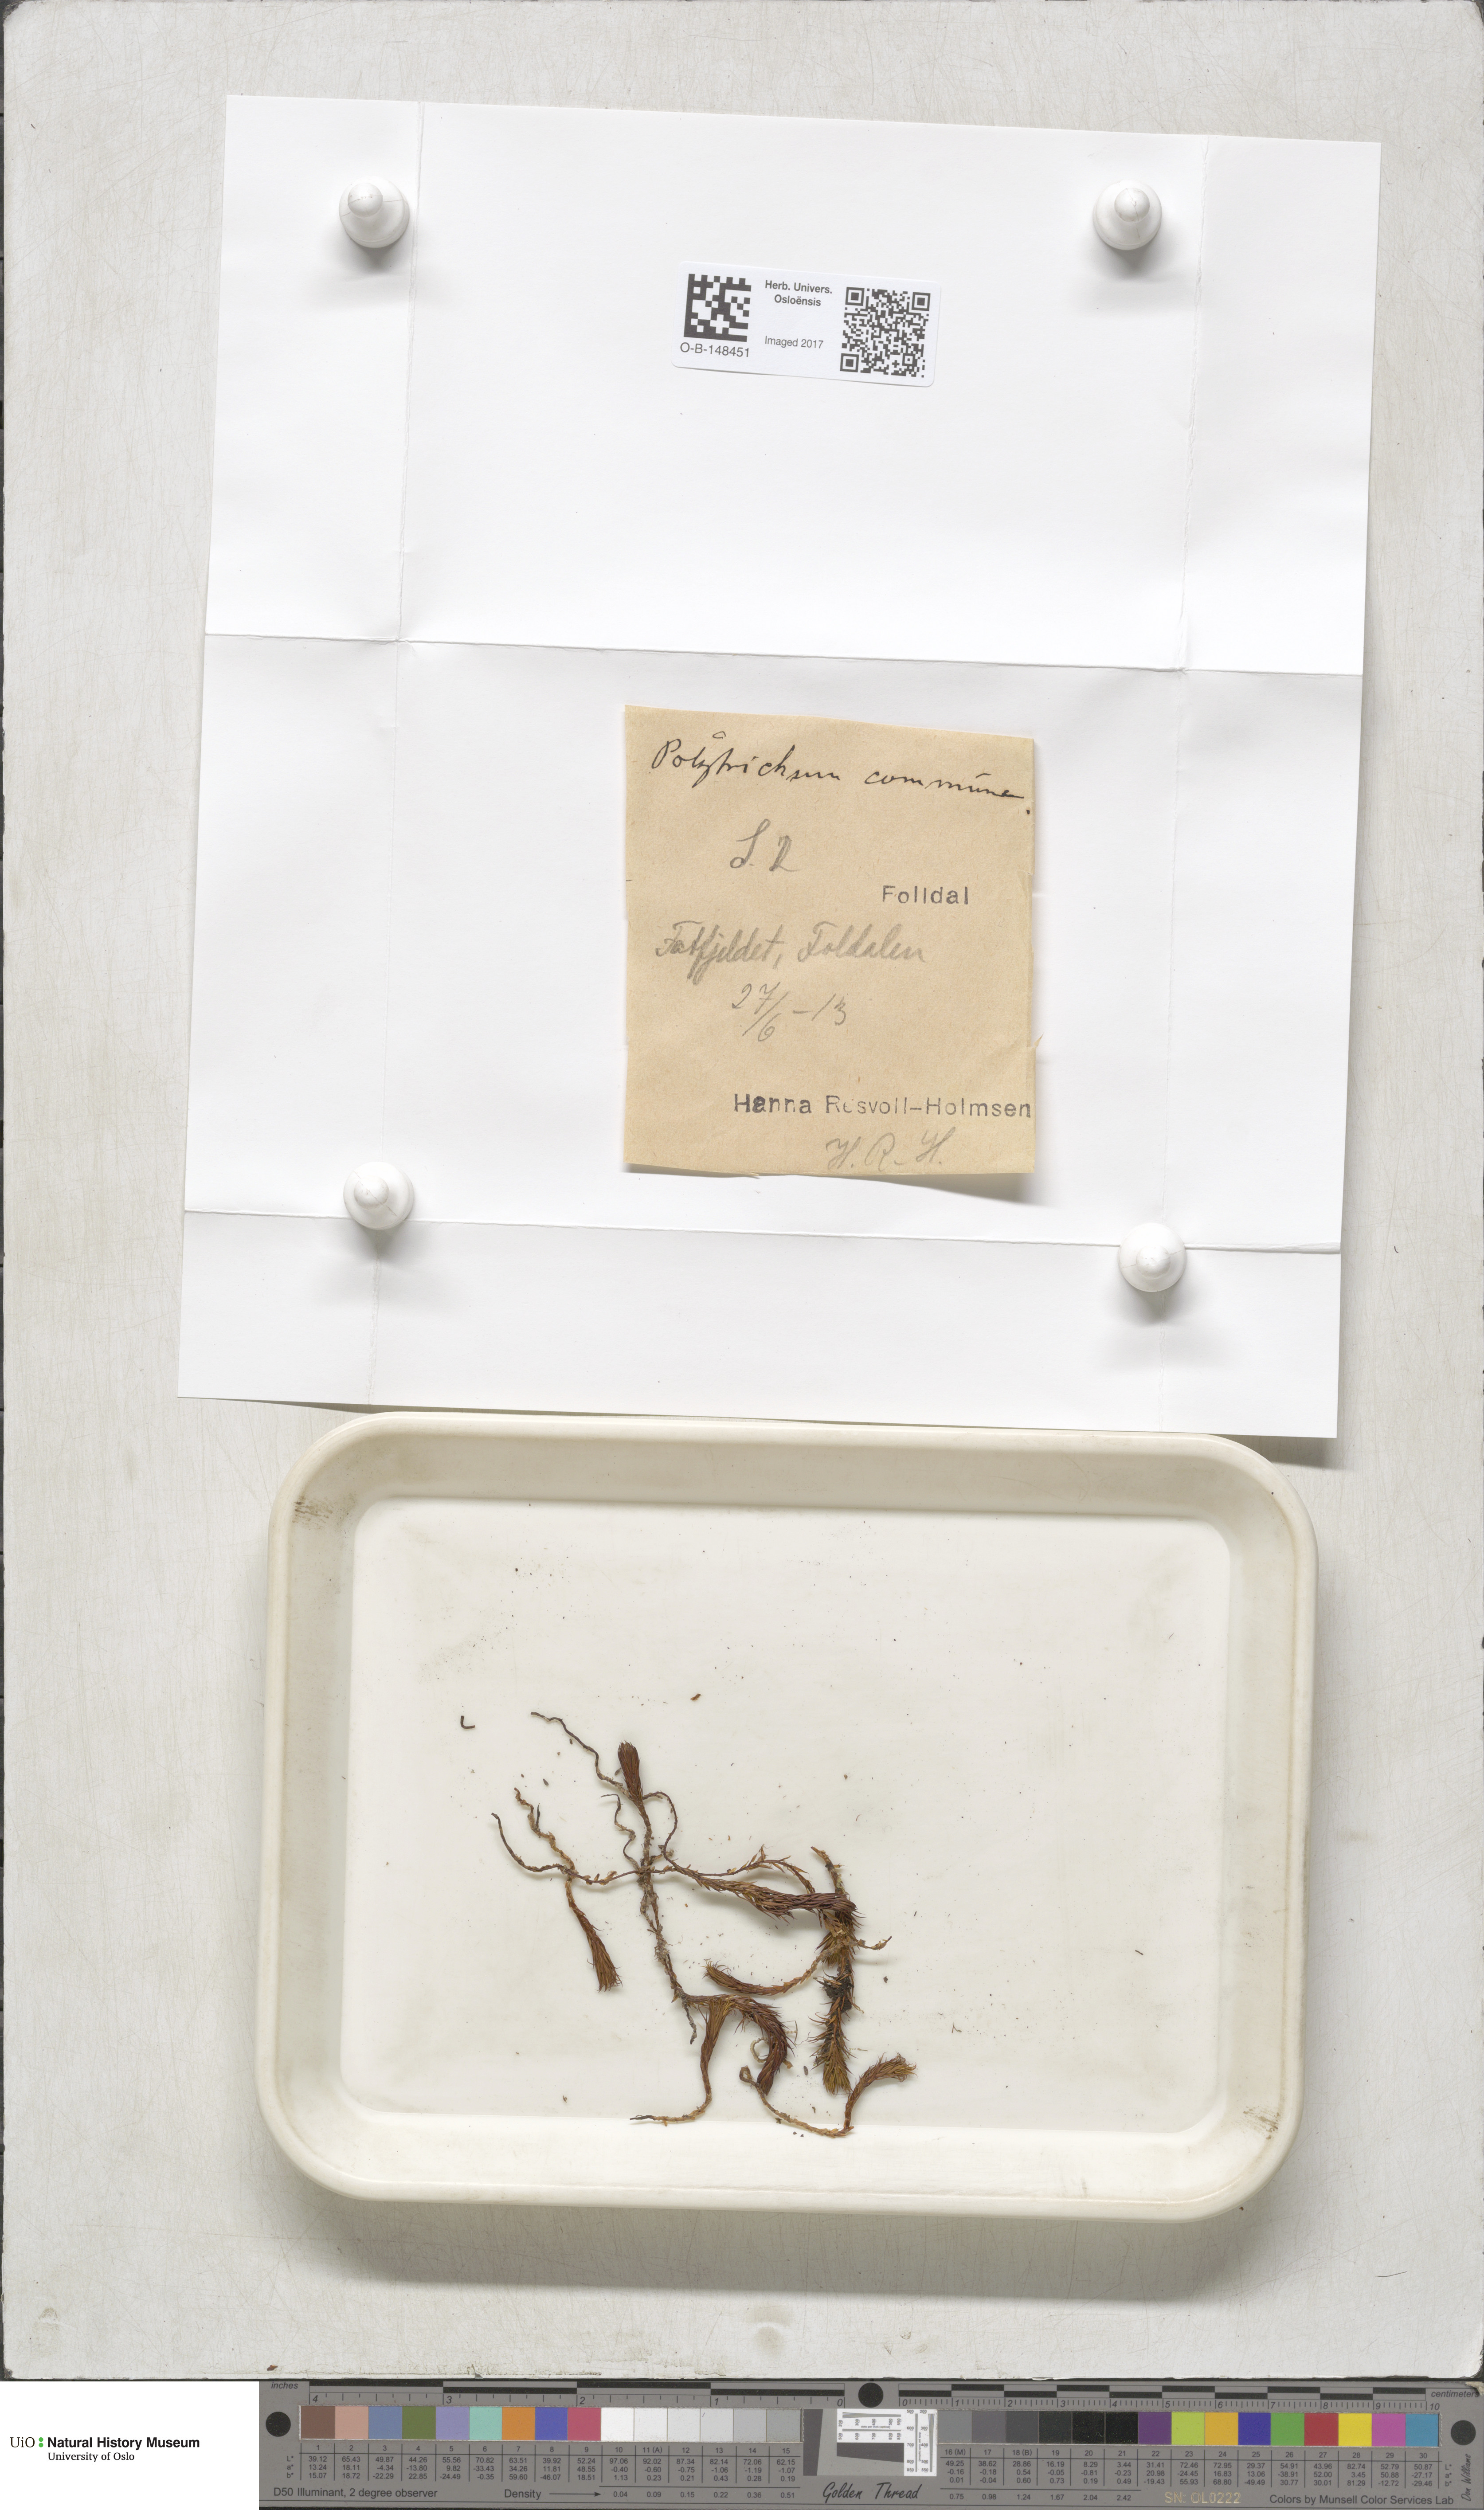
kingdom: Plantae
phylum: Bryophyta
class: Polytrichopsida
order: Polytrichales
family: Polytrichaceae
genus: Polytrichum
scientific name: Polytrichum commune
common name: Common haircap
